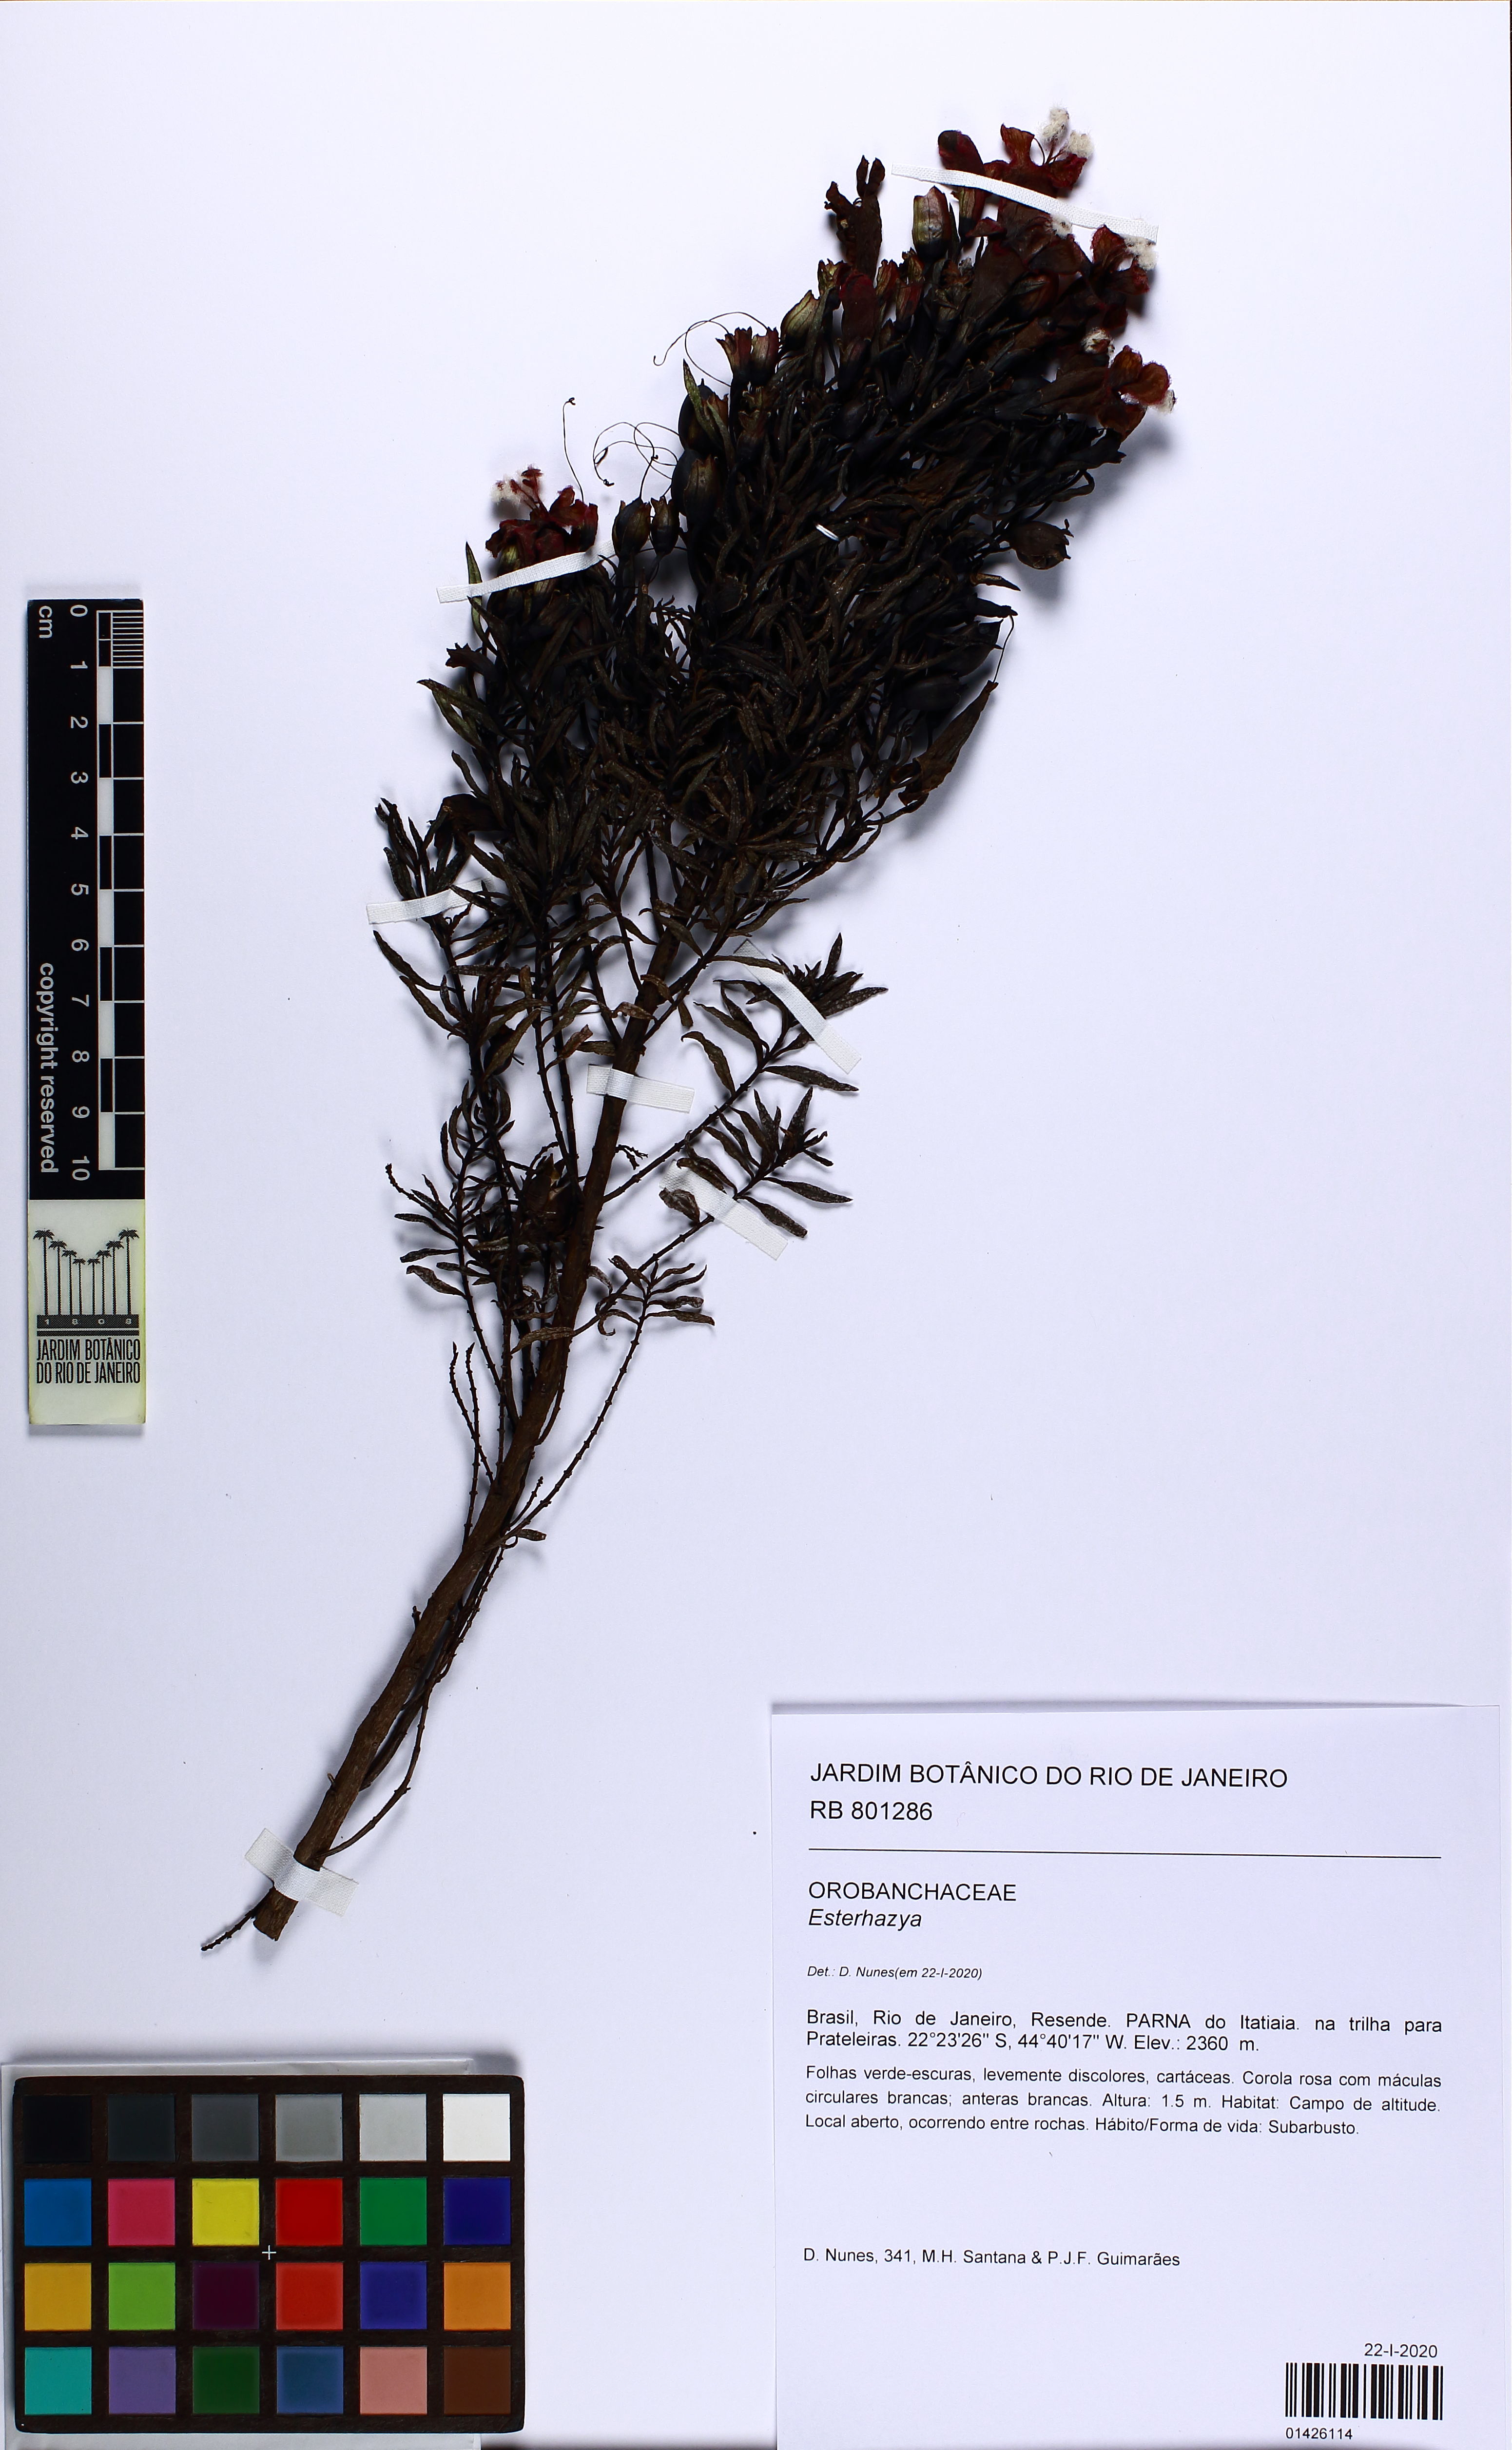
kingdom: Plantae
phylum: Tracheophyta
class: Magnoliopsida
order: Lamiales
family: Orobanchaceae
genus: Esterhazya
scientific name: Esterhazya
